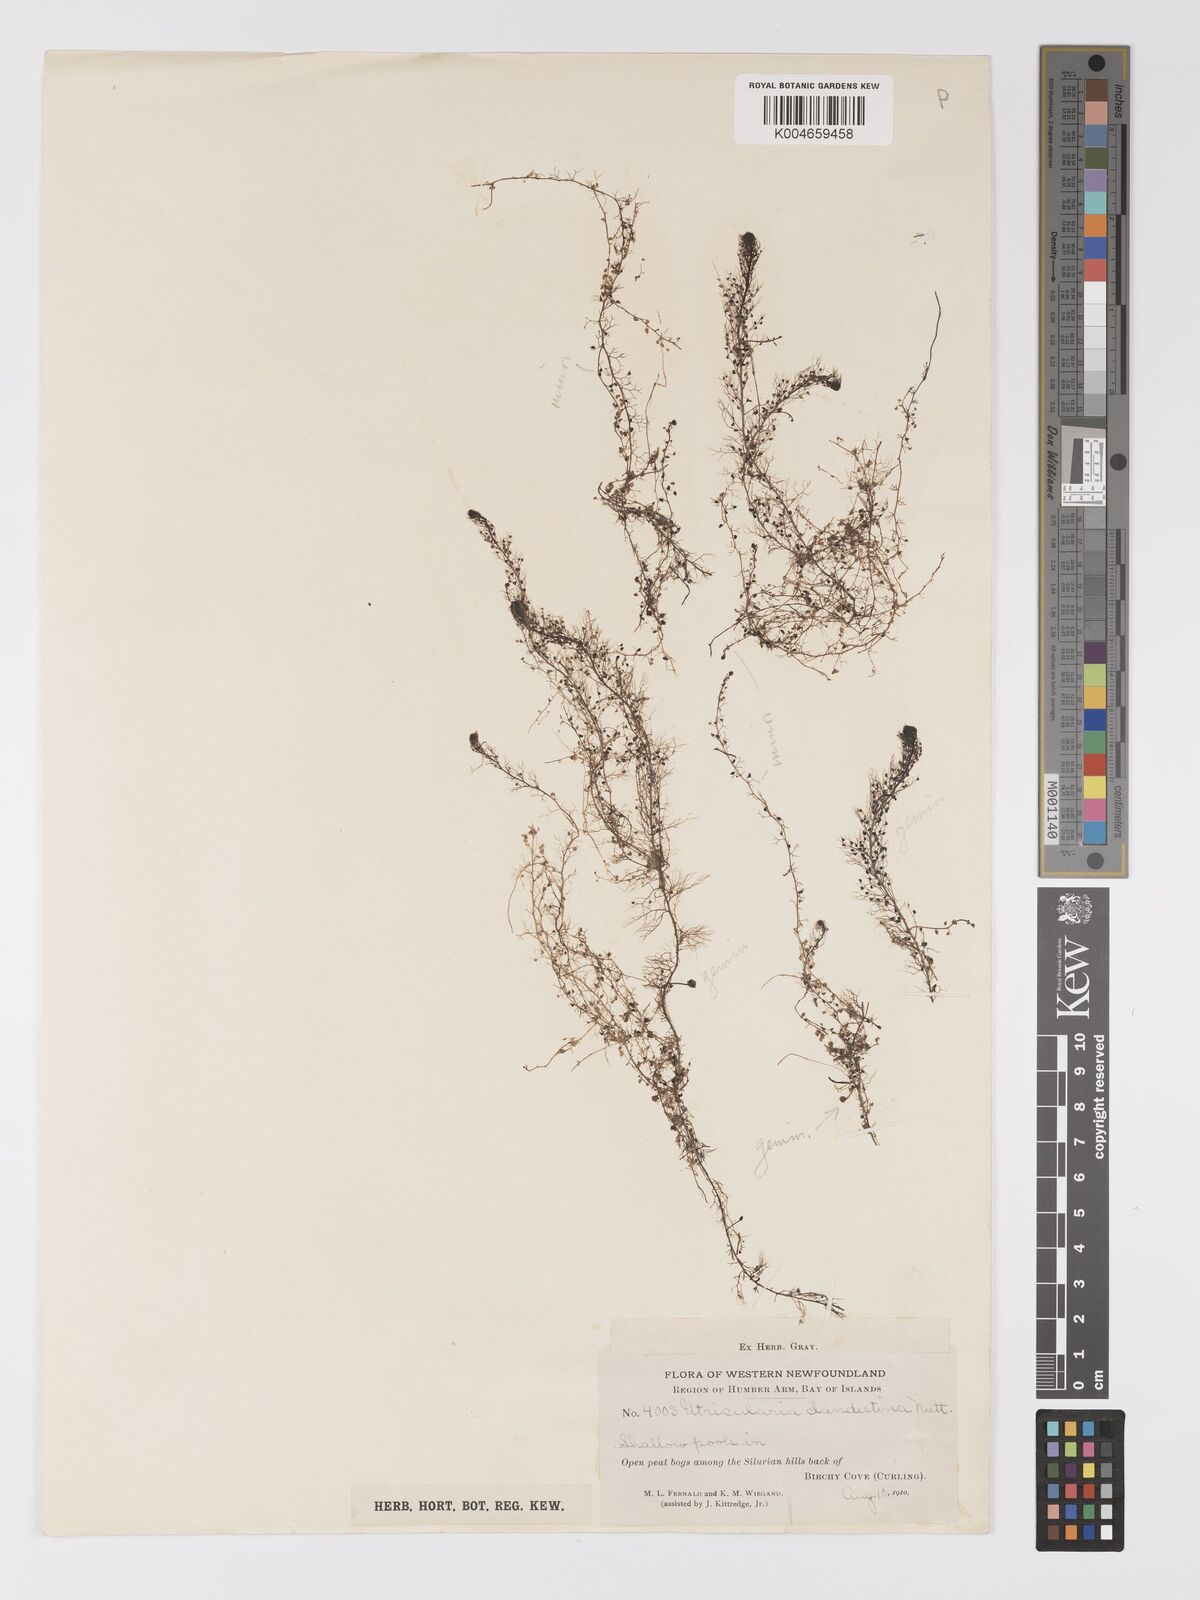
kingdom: Plantae
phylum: Tracheophyta
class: Magnoliopsida
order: Lamiales
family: Lentibulariaceae
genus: Utricularia
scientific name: Utricularia geminiscapa
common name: Hidden-fruit bladderwort
